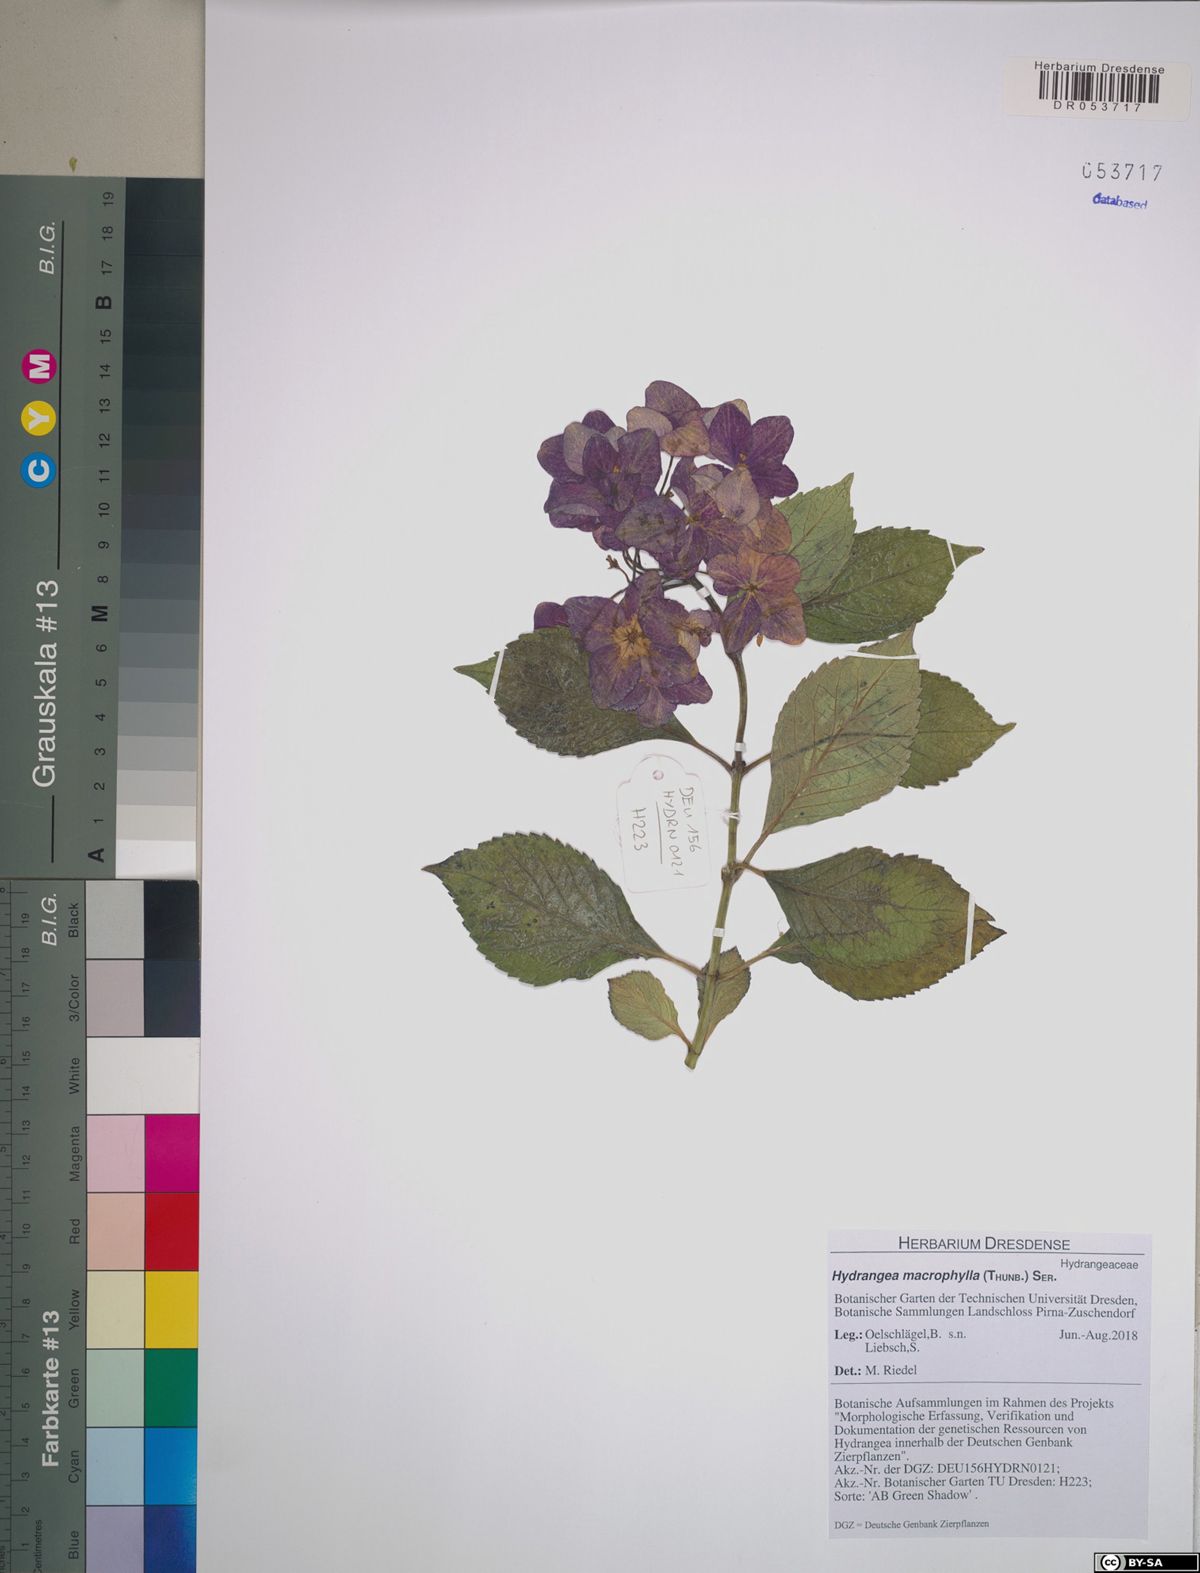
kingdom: Plantae
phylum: Tracheophyta
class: Magnoliopsida
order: Cornales
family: Hydrangeaceae
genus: Hydrangea
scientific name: Hydrangea macrophylla
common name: Hydrangea
